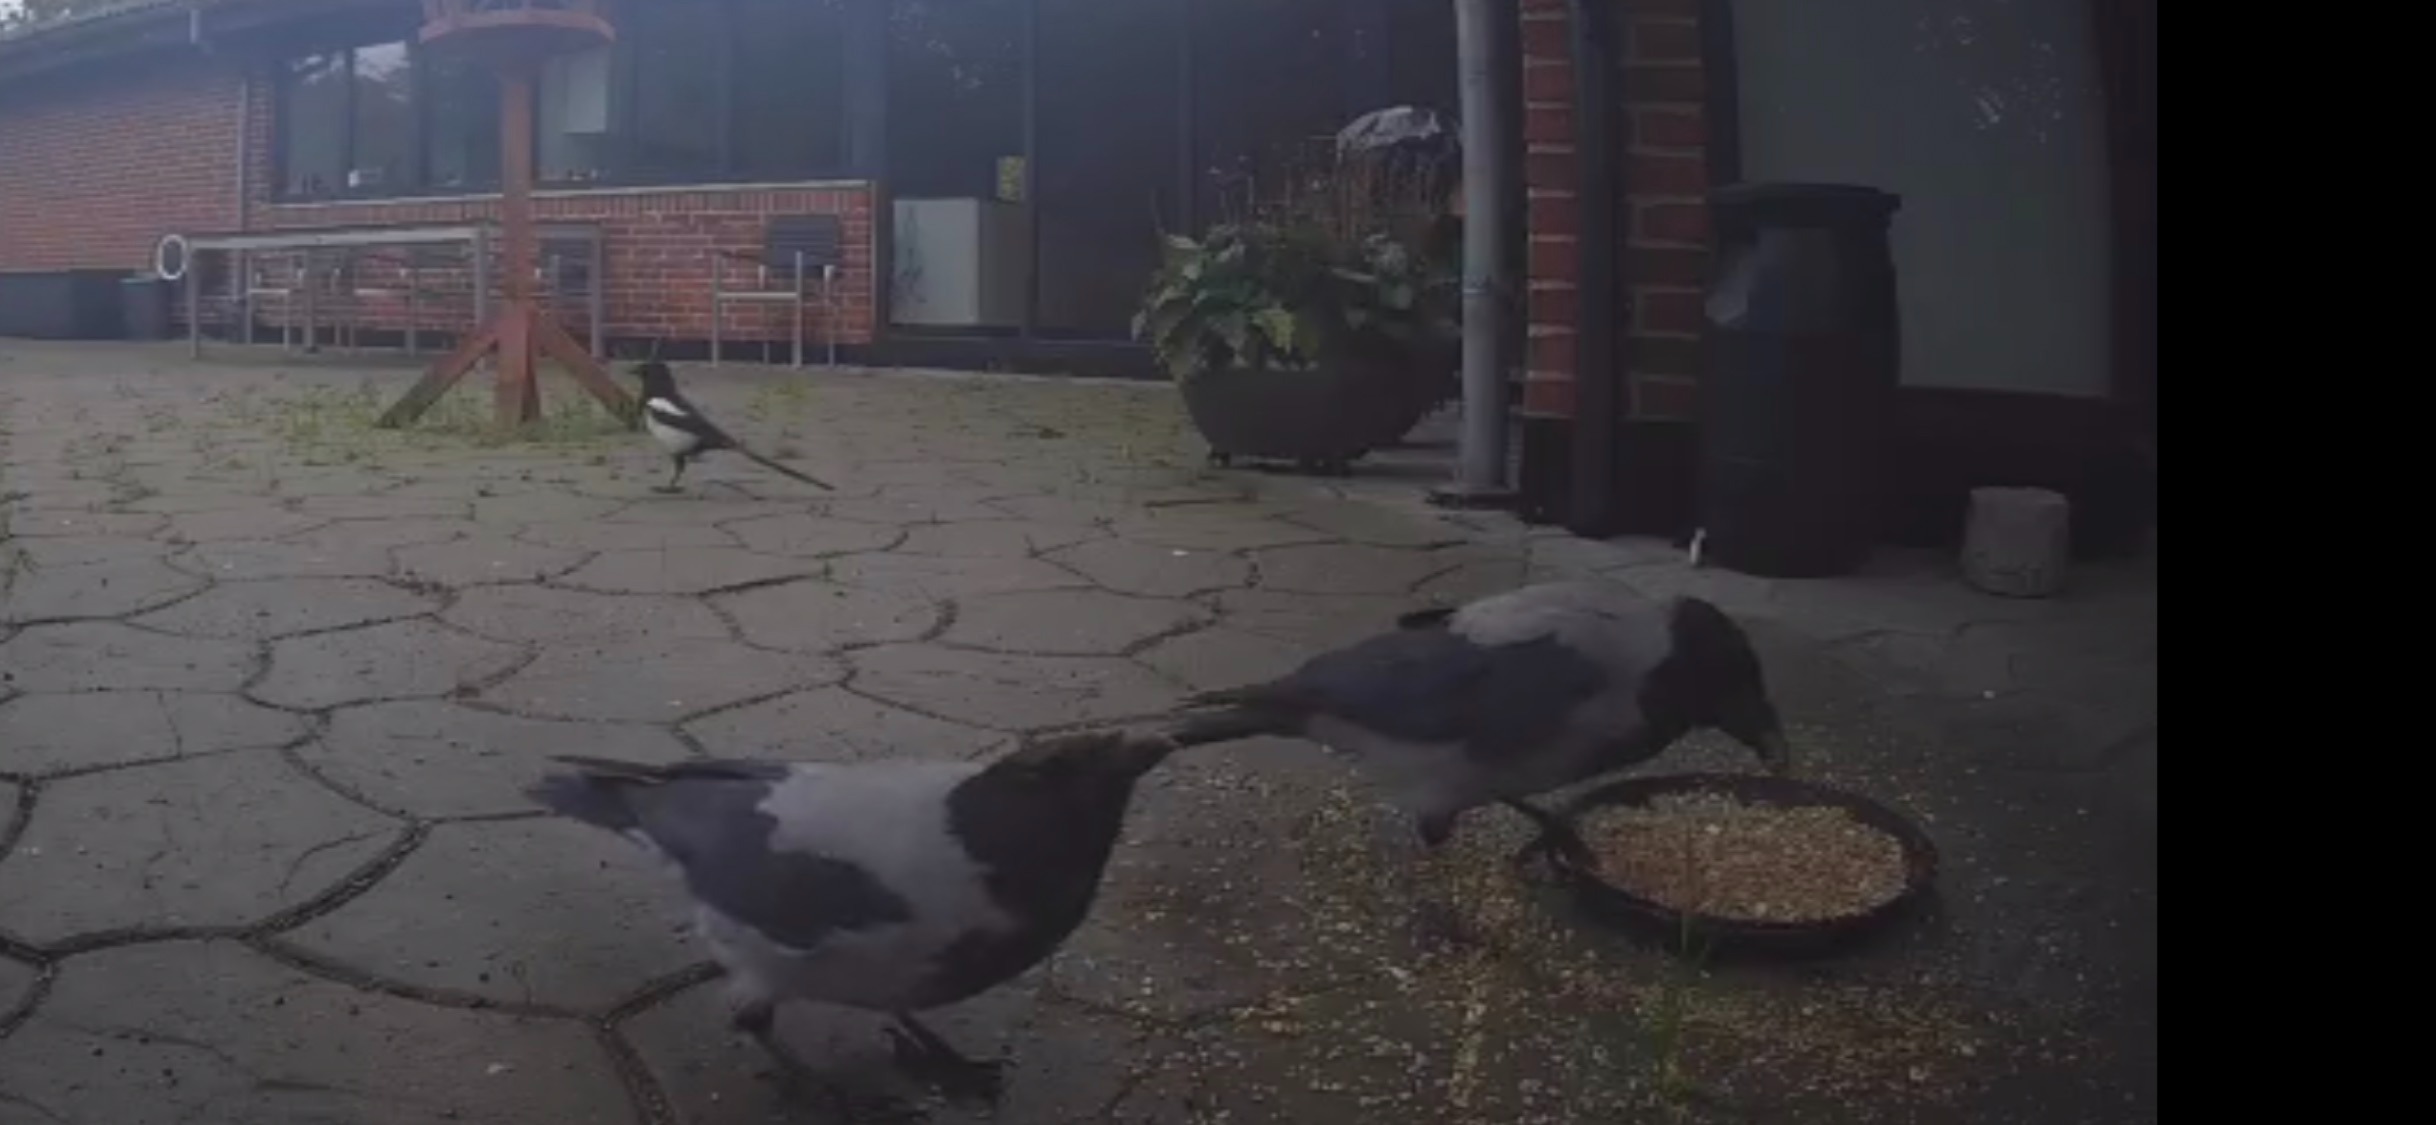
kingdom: Animalia
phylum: Chordata
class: Aves
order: Passeriformes
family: Corvidae
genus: Corvus
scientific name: Corvus cornix
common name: Gråkrage
